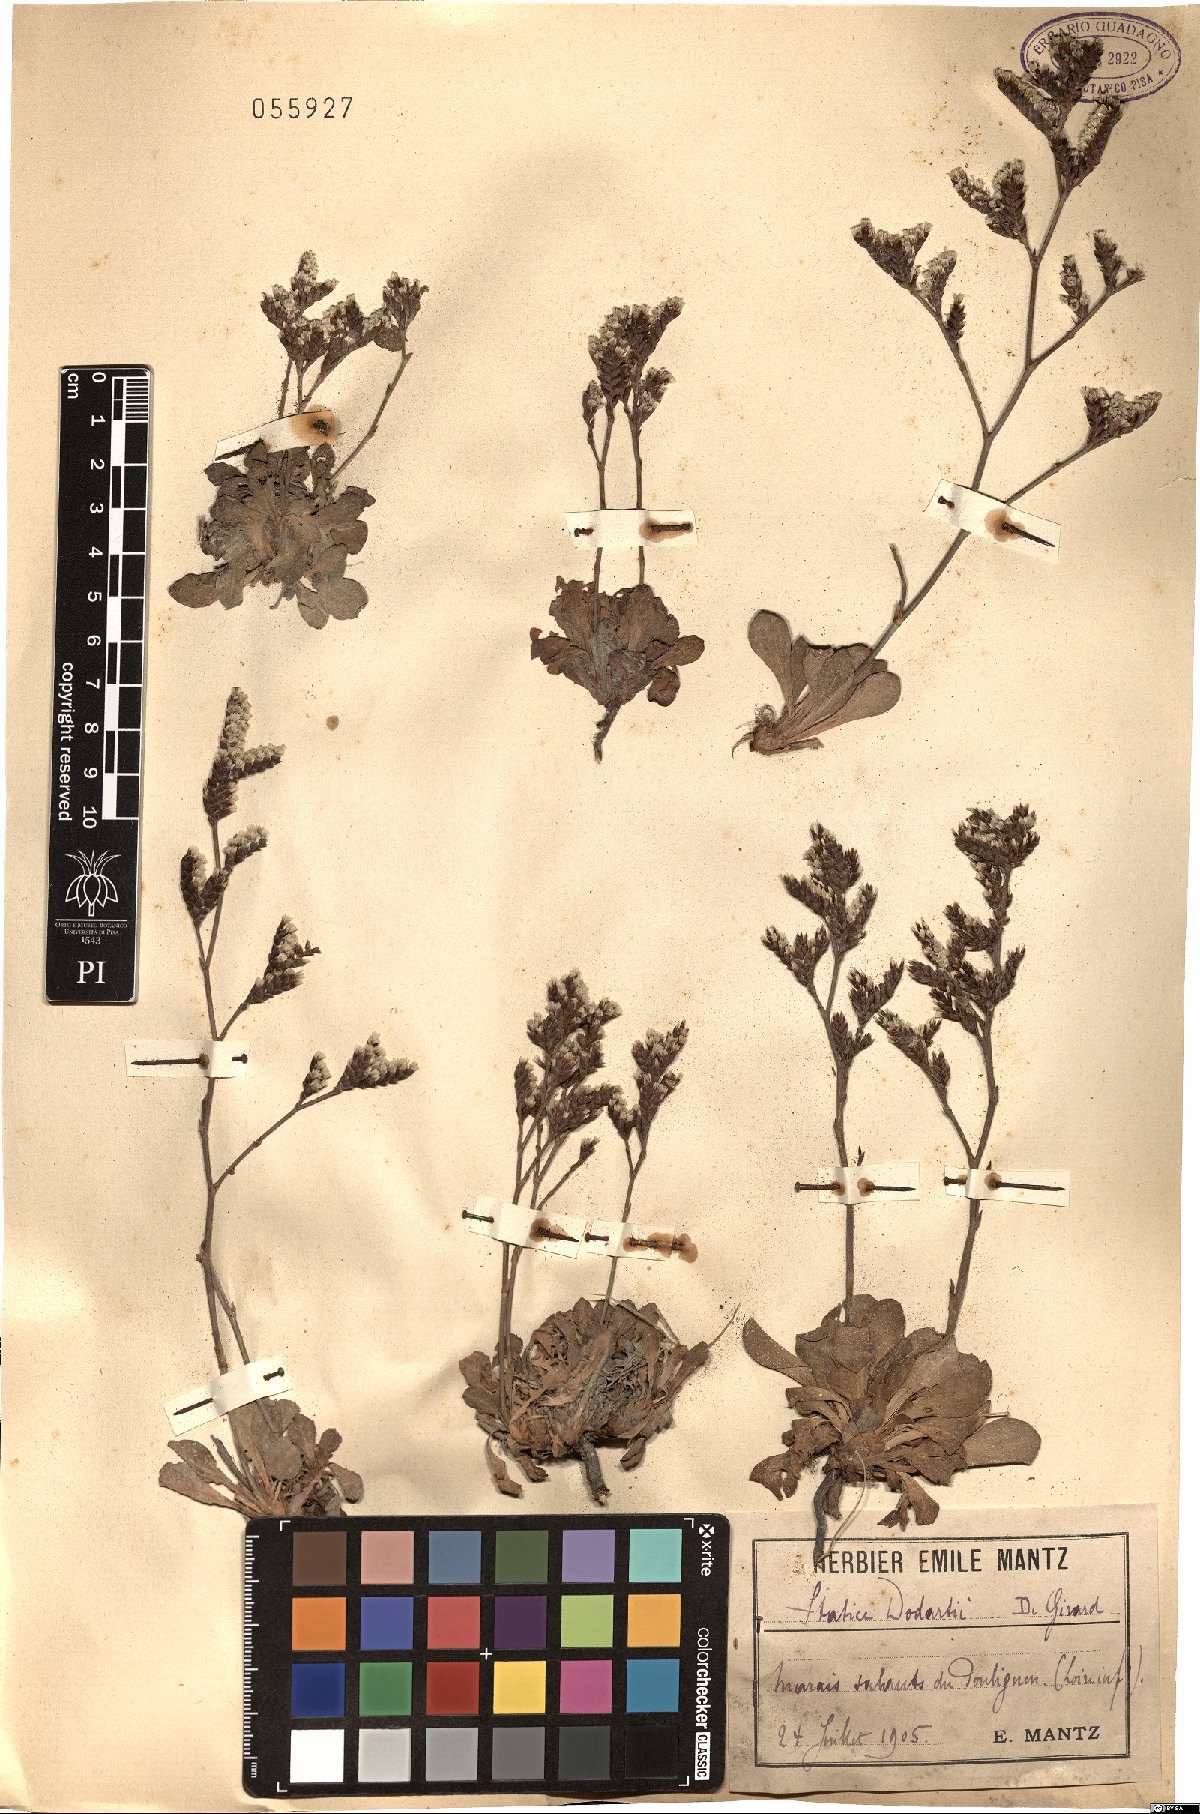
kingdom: Plantae
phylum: Tracheophyta
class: Magnoliopsida
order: Caryophyllales
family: Plumbaginaceae
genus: Limonium
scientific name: Limonium dodartii
